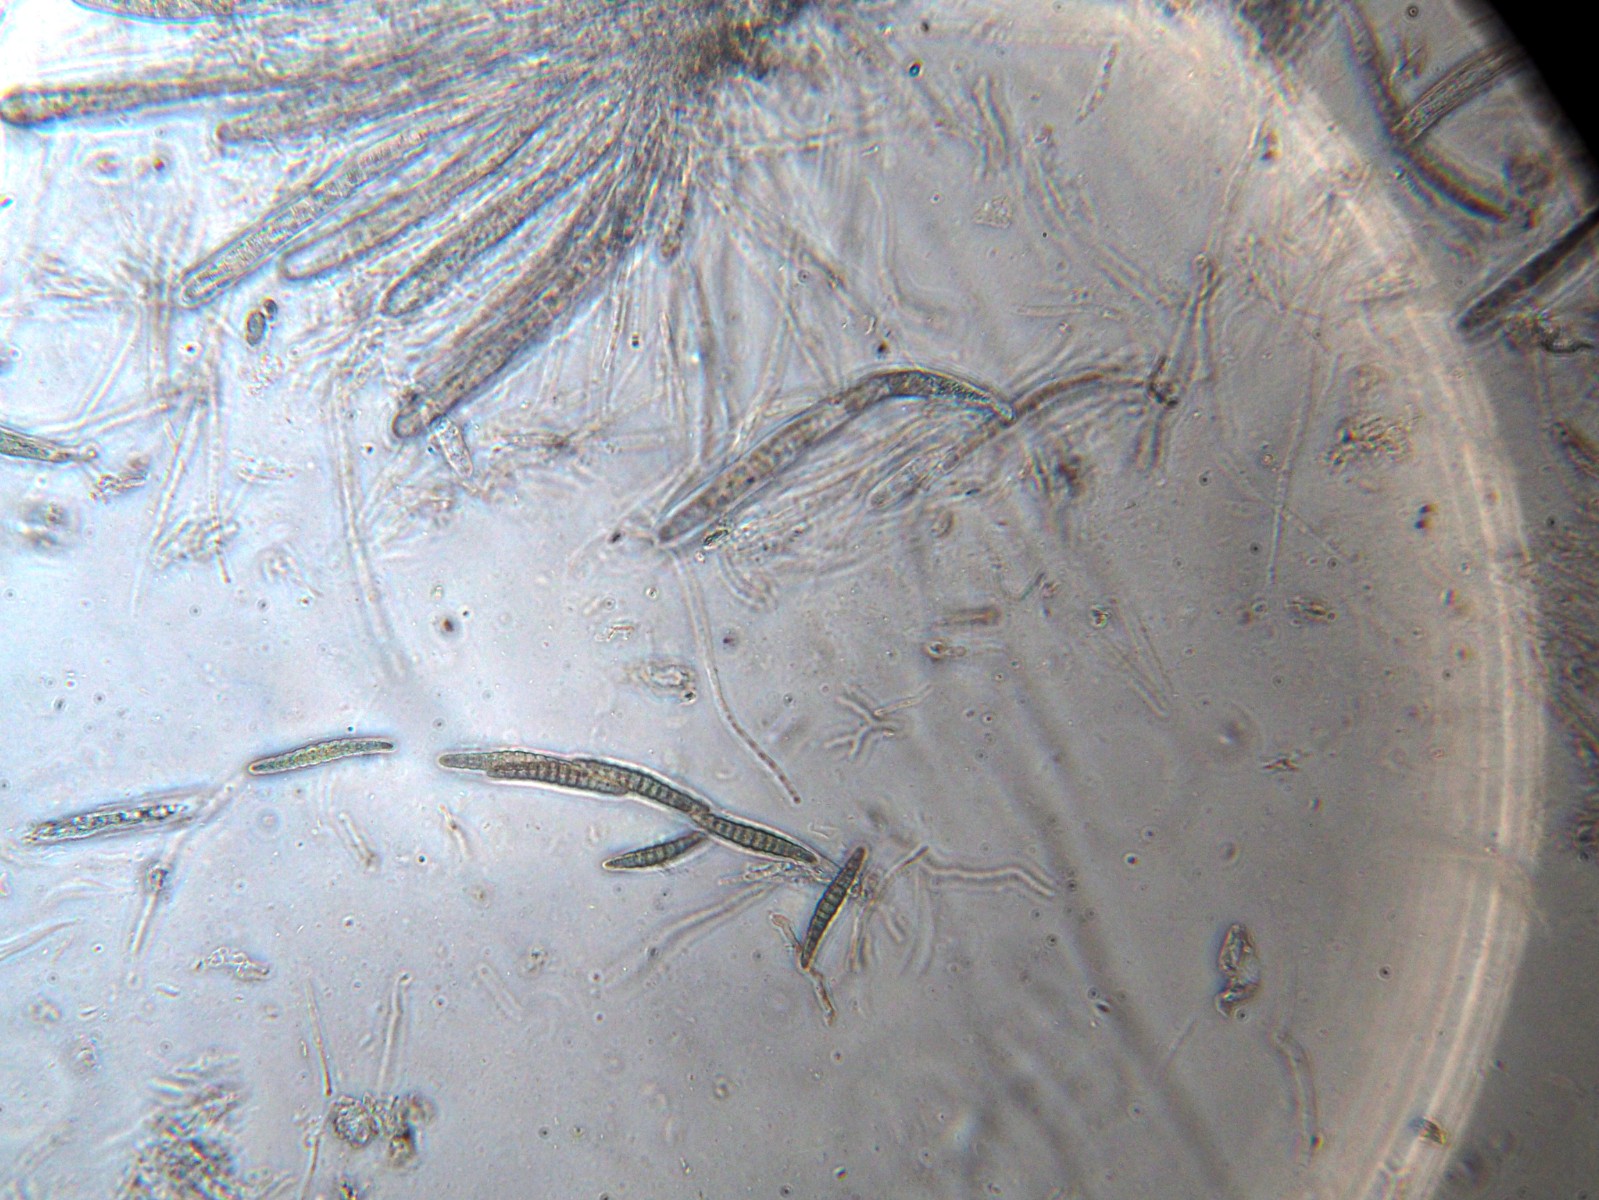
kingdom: Fungi
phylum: Ascomycota
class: Dothideomycetes
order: Pleosporales
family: Leptosphaeriaceae
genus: Leptosphaeria
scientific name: Leptosphaeria acuta
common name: spids kulkegle
